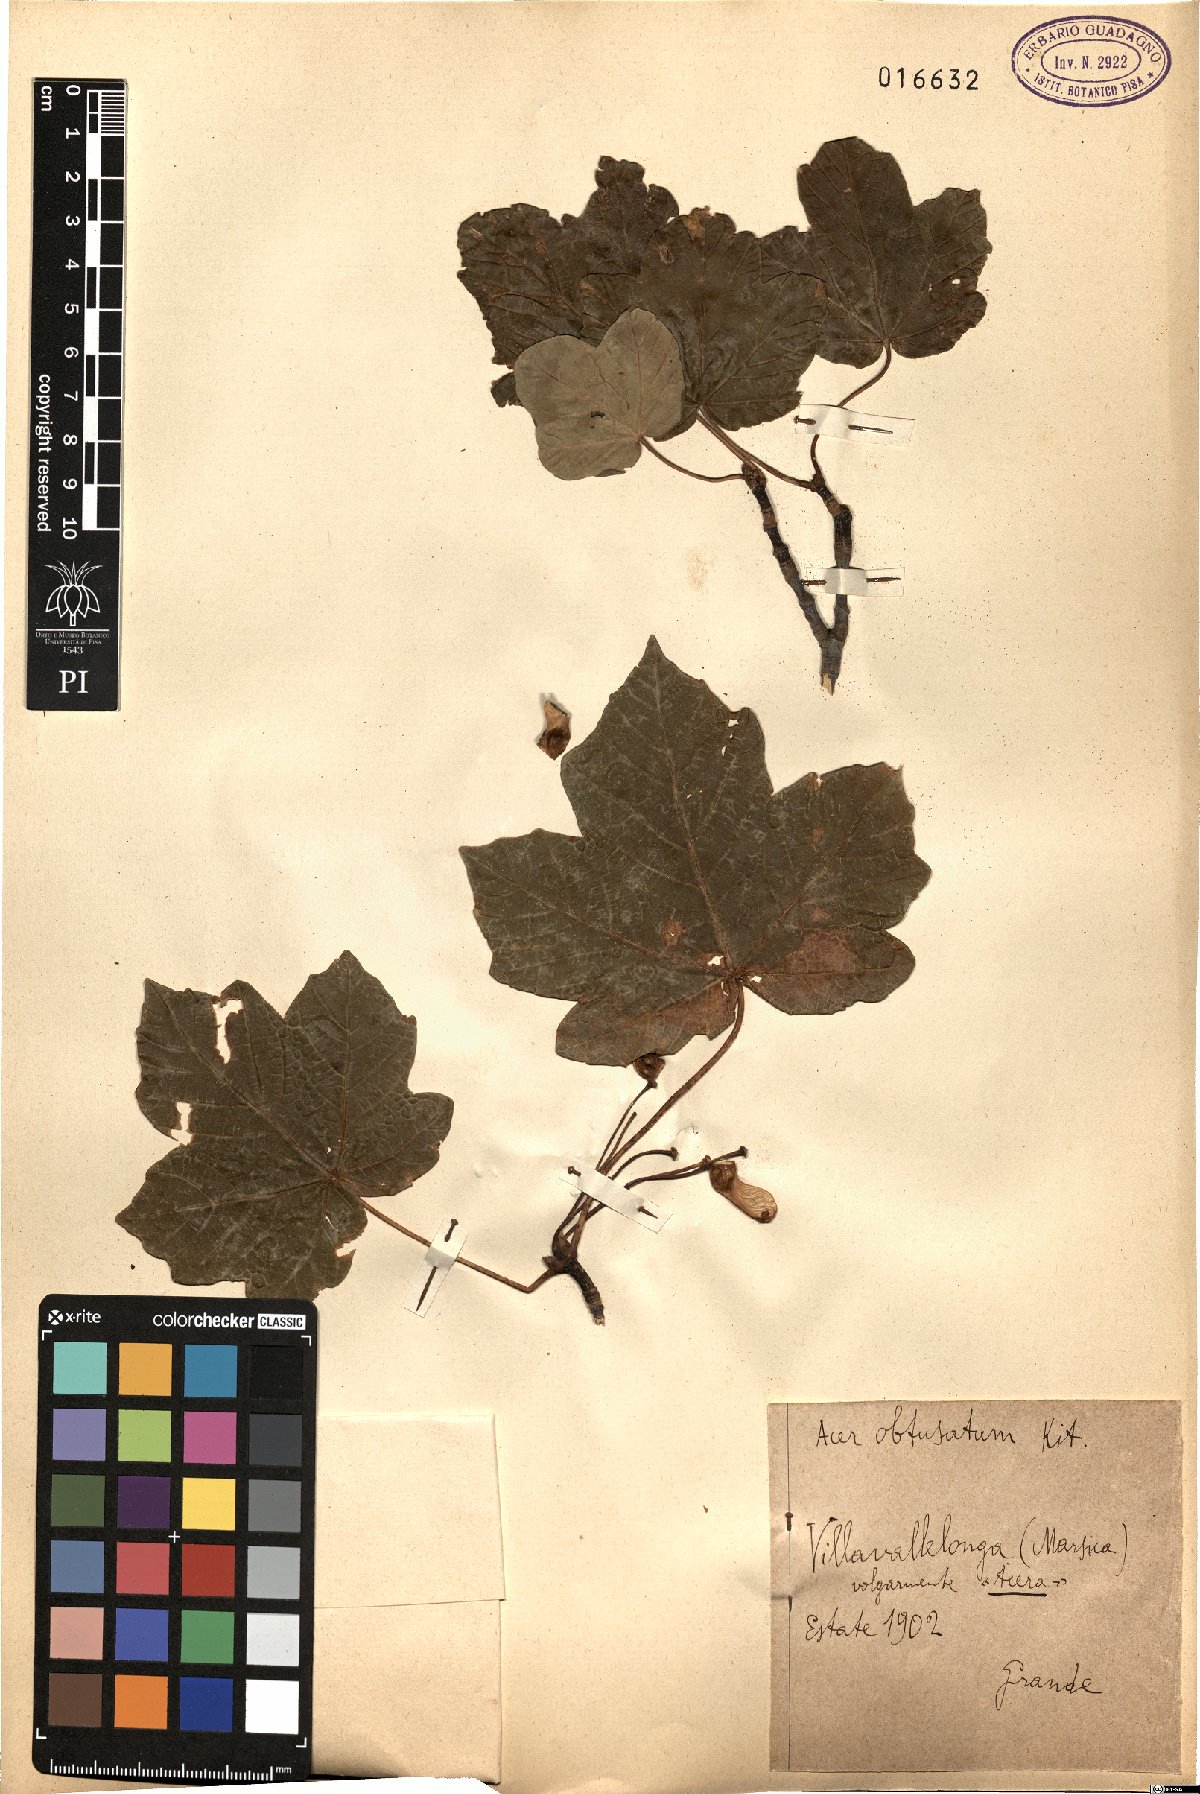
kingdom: Plantae
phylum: Tracheophyta
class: Magnoliopsida
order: Sapindales
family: Sapindaceae
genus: Acer
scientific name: Acer obtusatum
